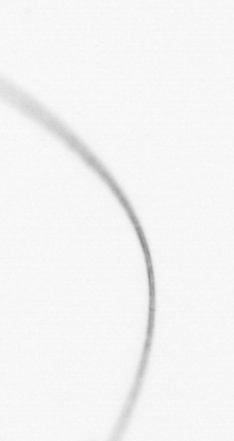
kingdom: Chromista
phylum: Ochrophyta
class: Bacillariophyceae
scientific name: Bacillariophyceae
